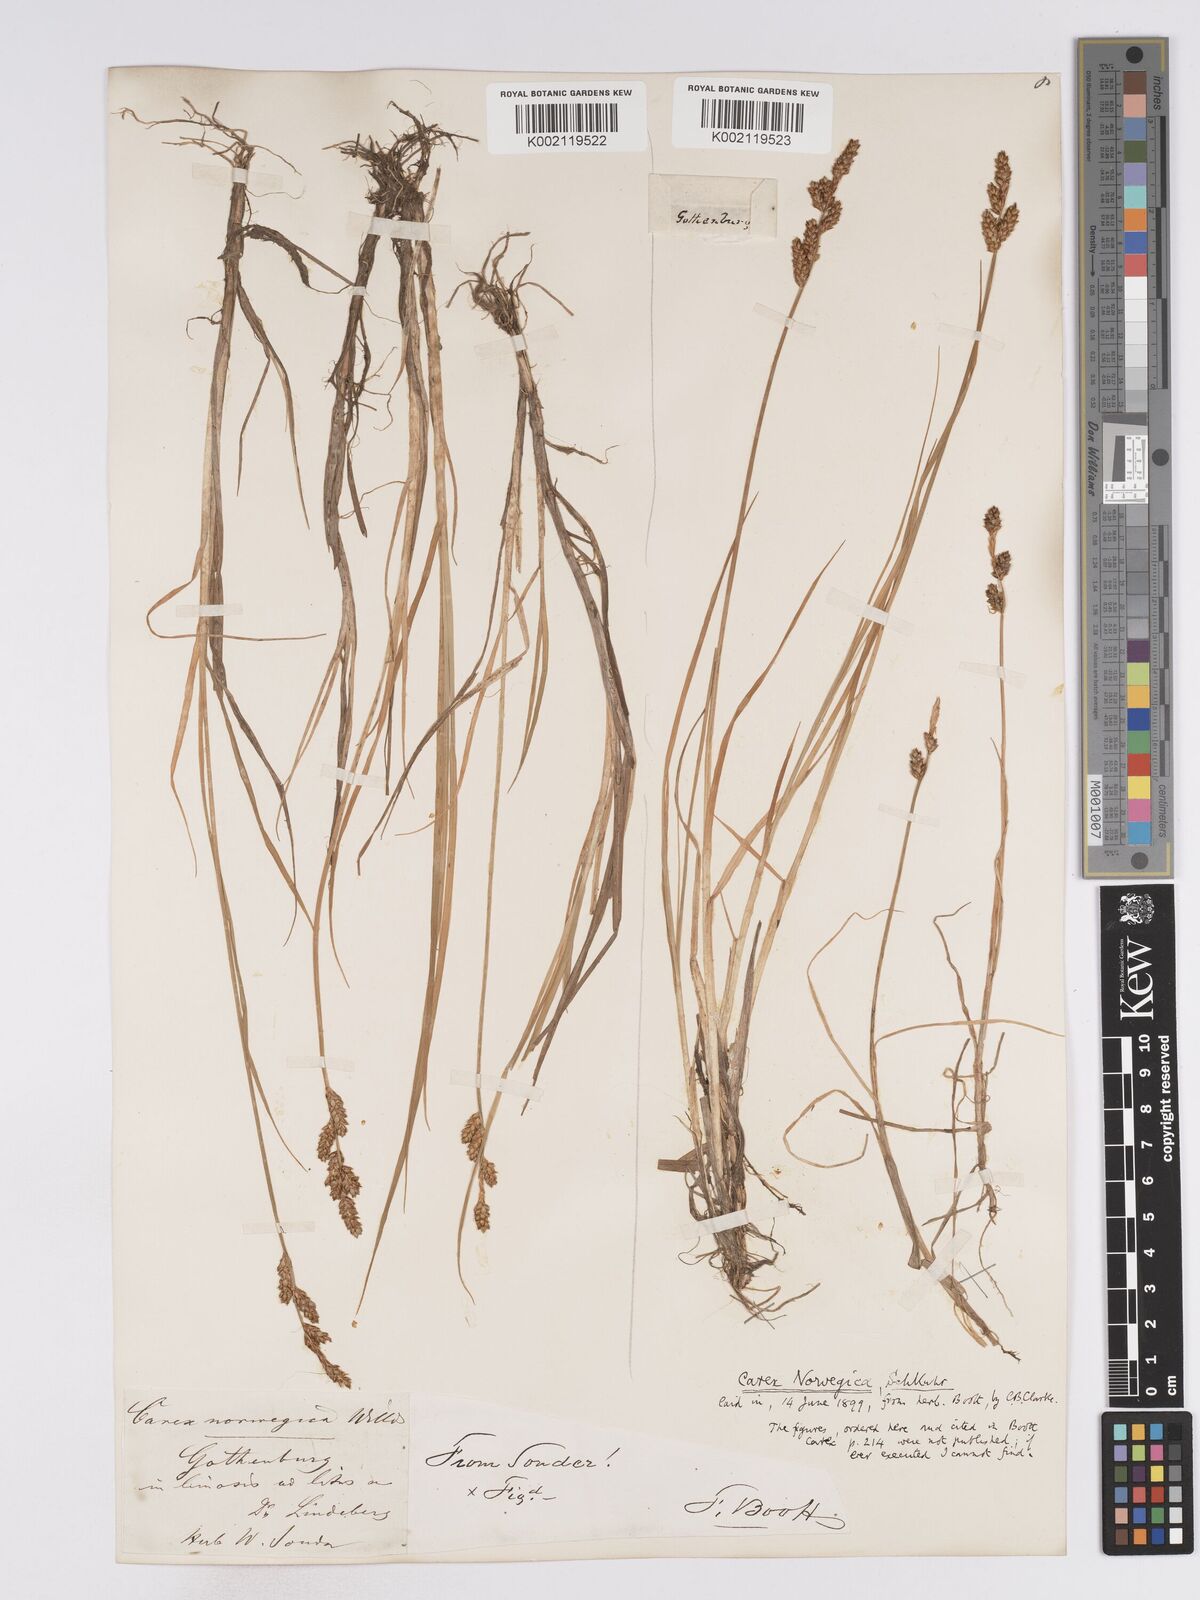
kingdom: Plantae
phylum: Tracheophyta
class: Liliopsida
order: Poales
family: Cyperaceae
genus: Carex
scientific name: Carex mackenziei
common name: Mackenzie's sedge
